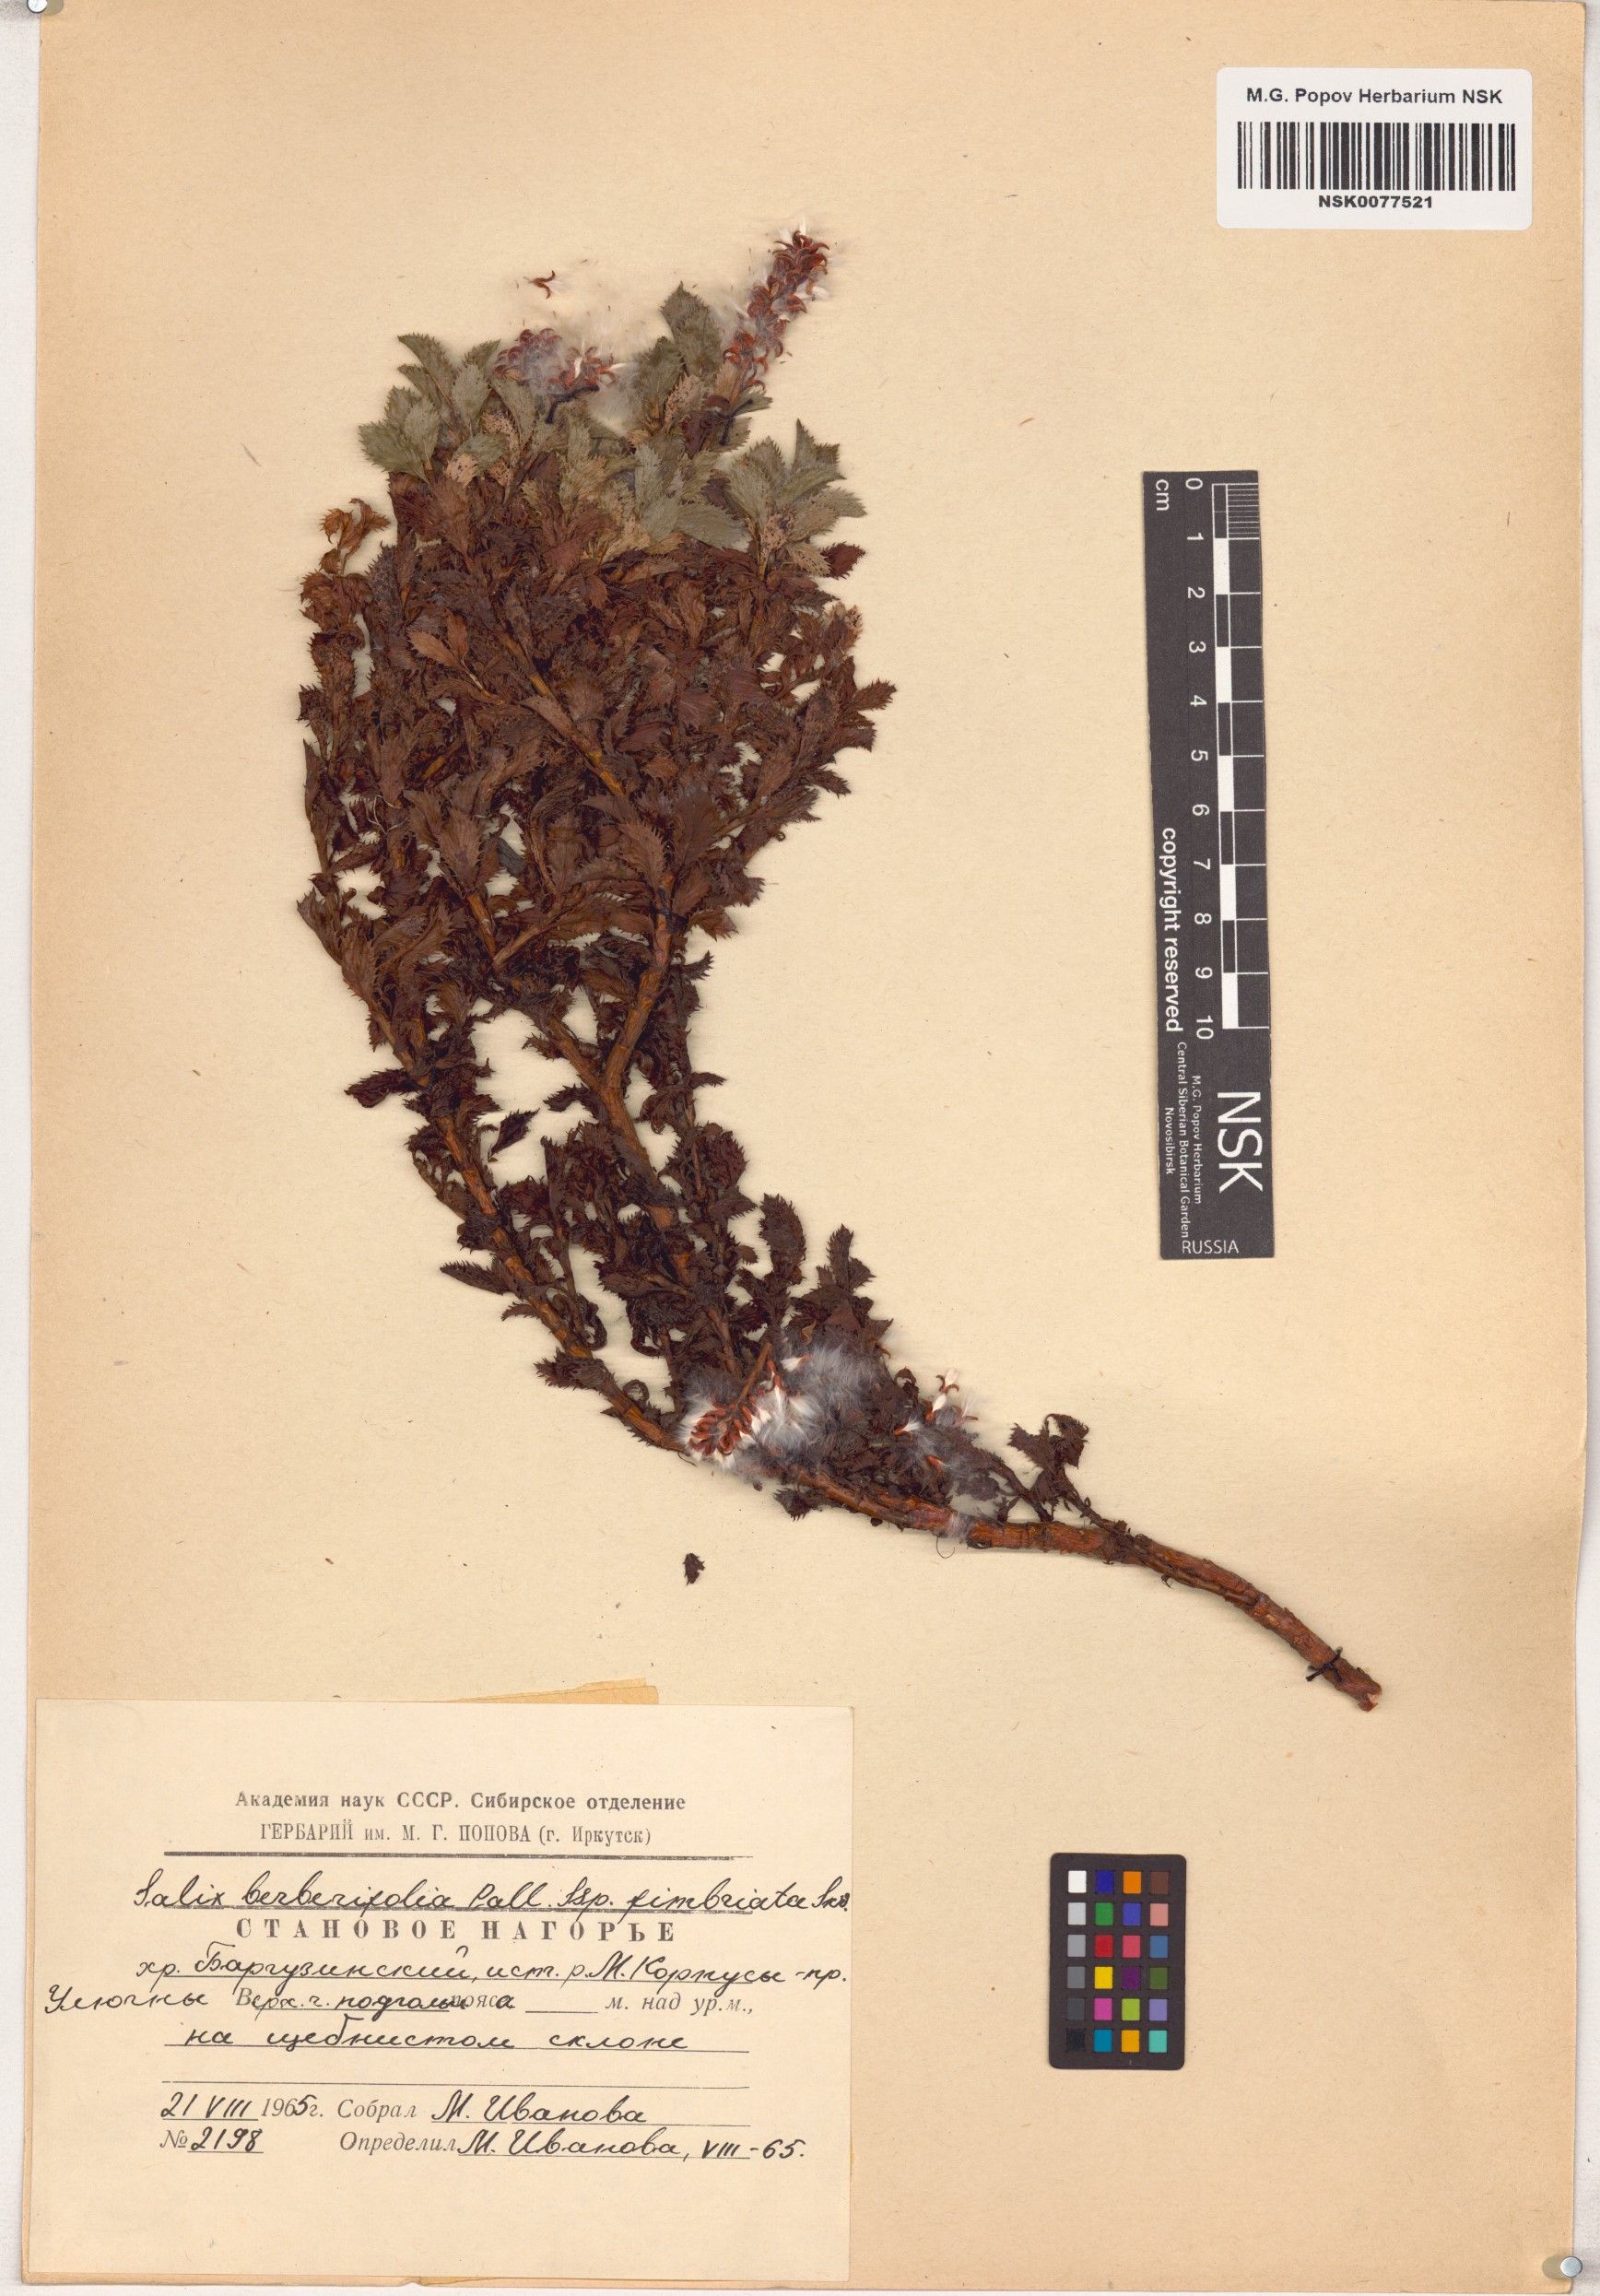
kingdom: Plantae
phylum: Tracheophyta
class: Magnoliopsida
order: Malpighiales
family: Salicaceae
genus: Salix
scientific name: Salix berberifolia
